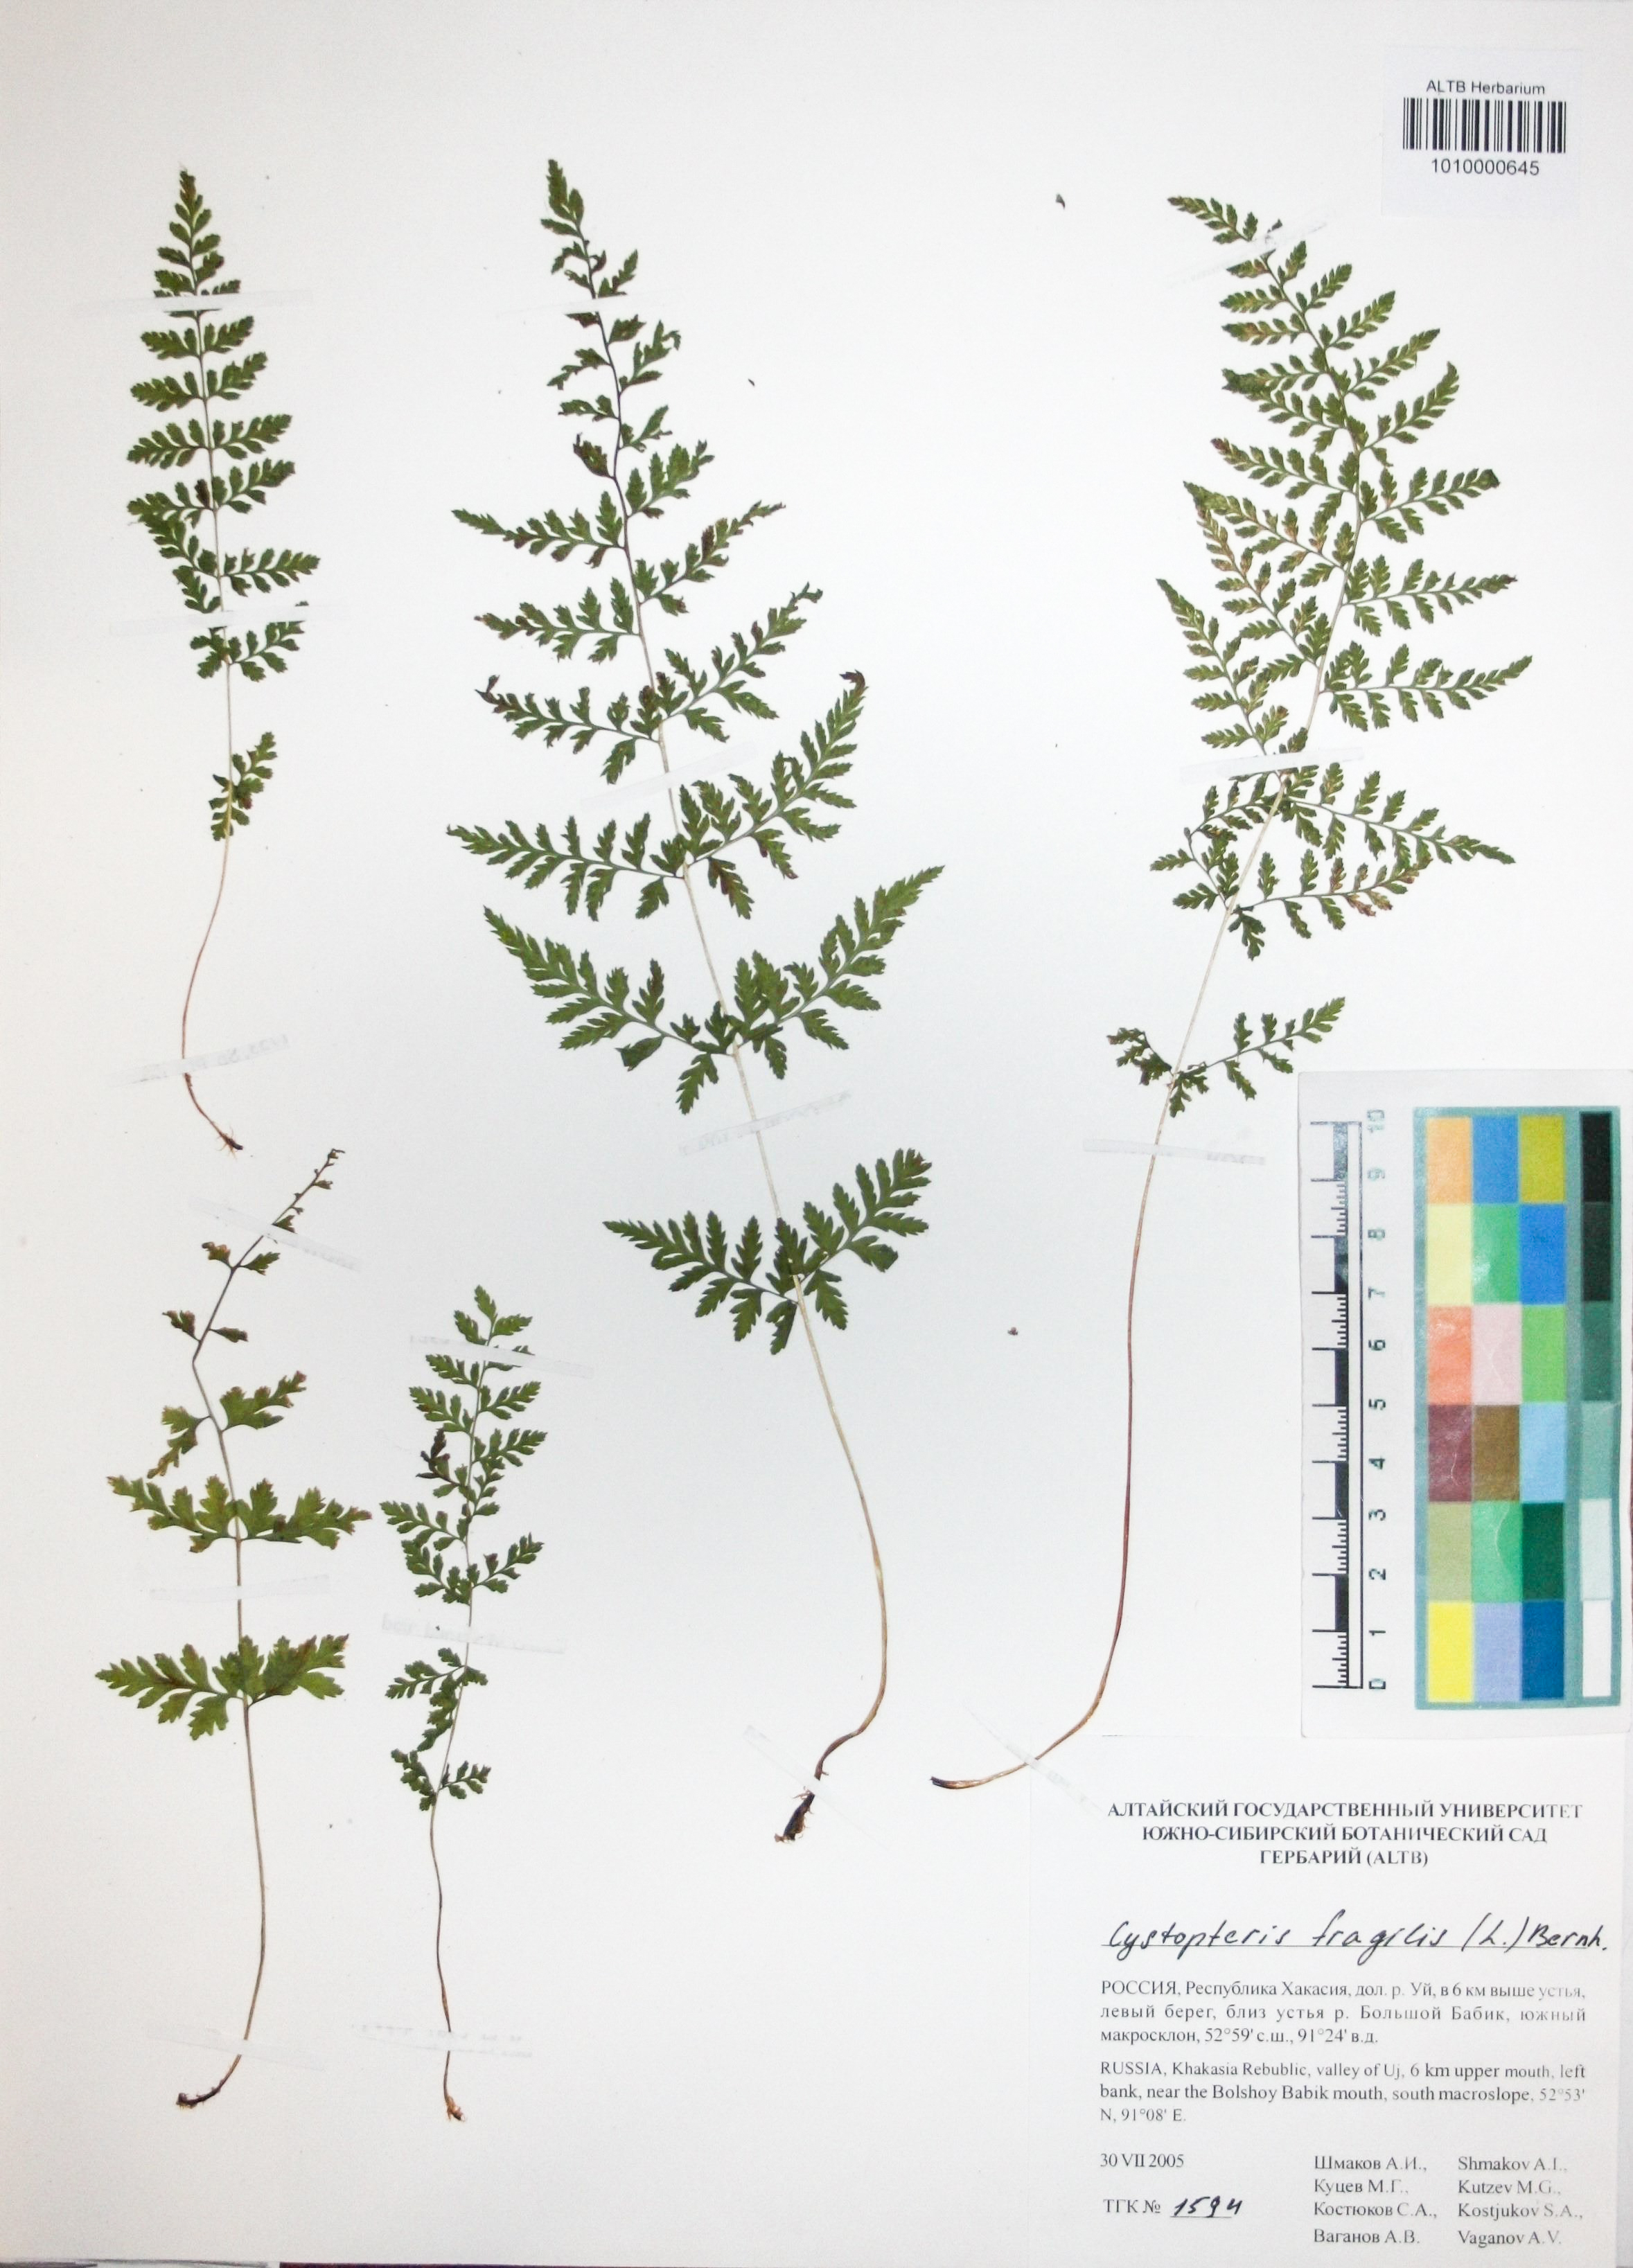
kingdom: Plantae
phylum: Tracheophyta
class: Polypodiopsida
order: Polypodiales
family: Cystopteridaceae
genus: Cystopteris
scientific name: Cystopteris fragilis
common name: Brittle bladder fern
